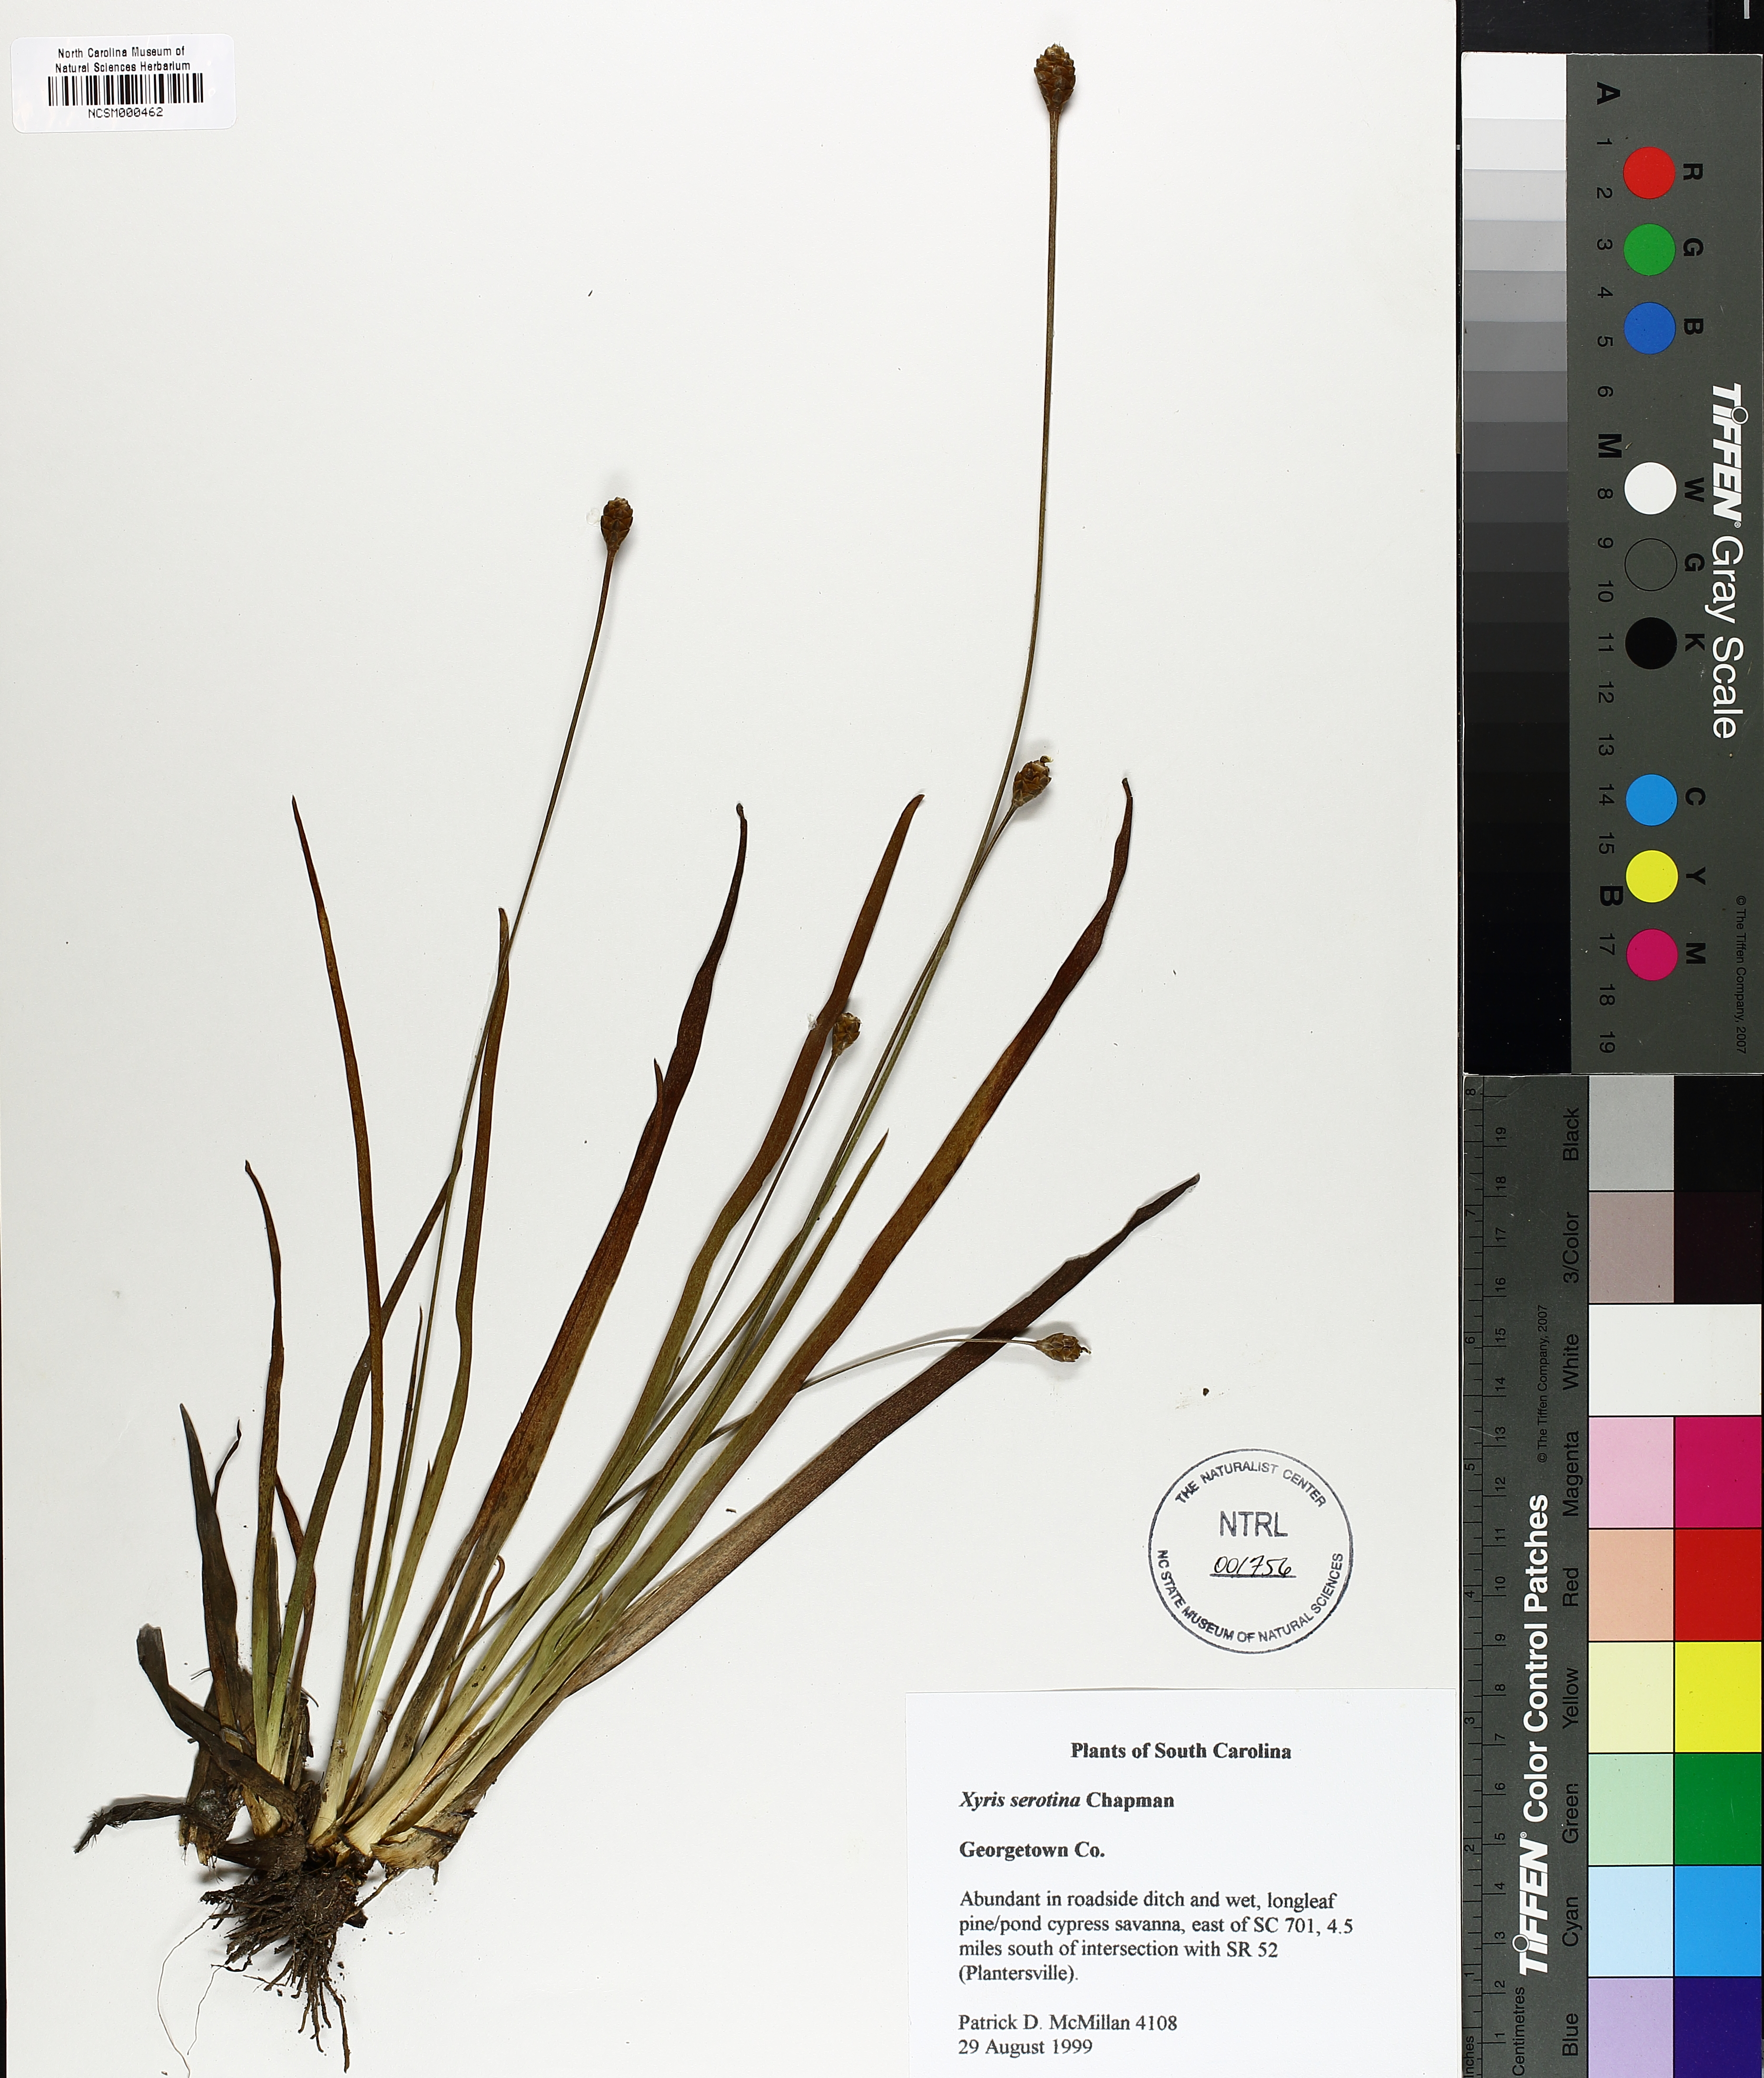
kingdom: Plantae
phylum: Tracheophyta
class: Liliopsida
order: Poales
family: Xyridaceae
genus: Xyris
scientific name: Xyris serotina
